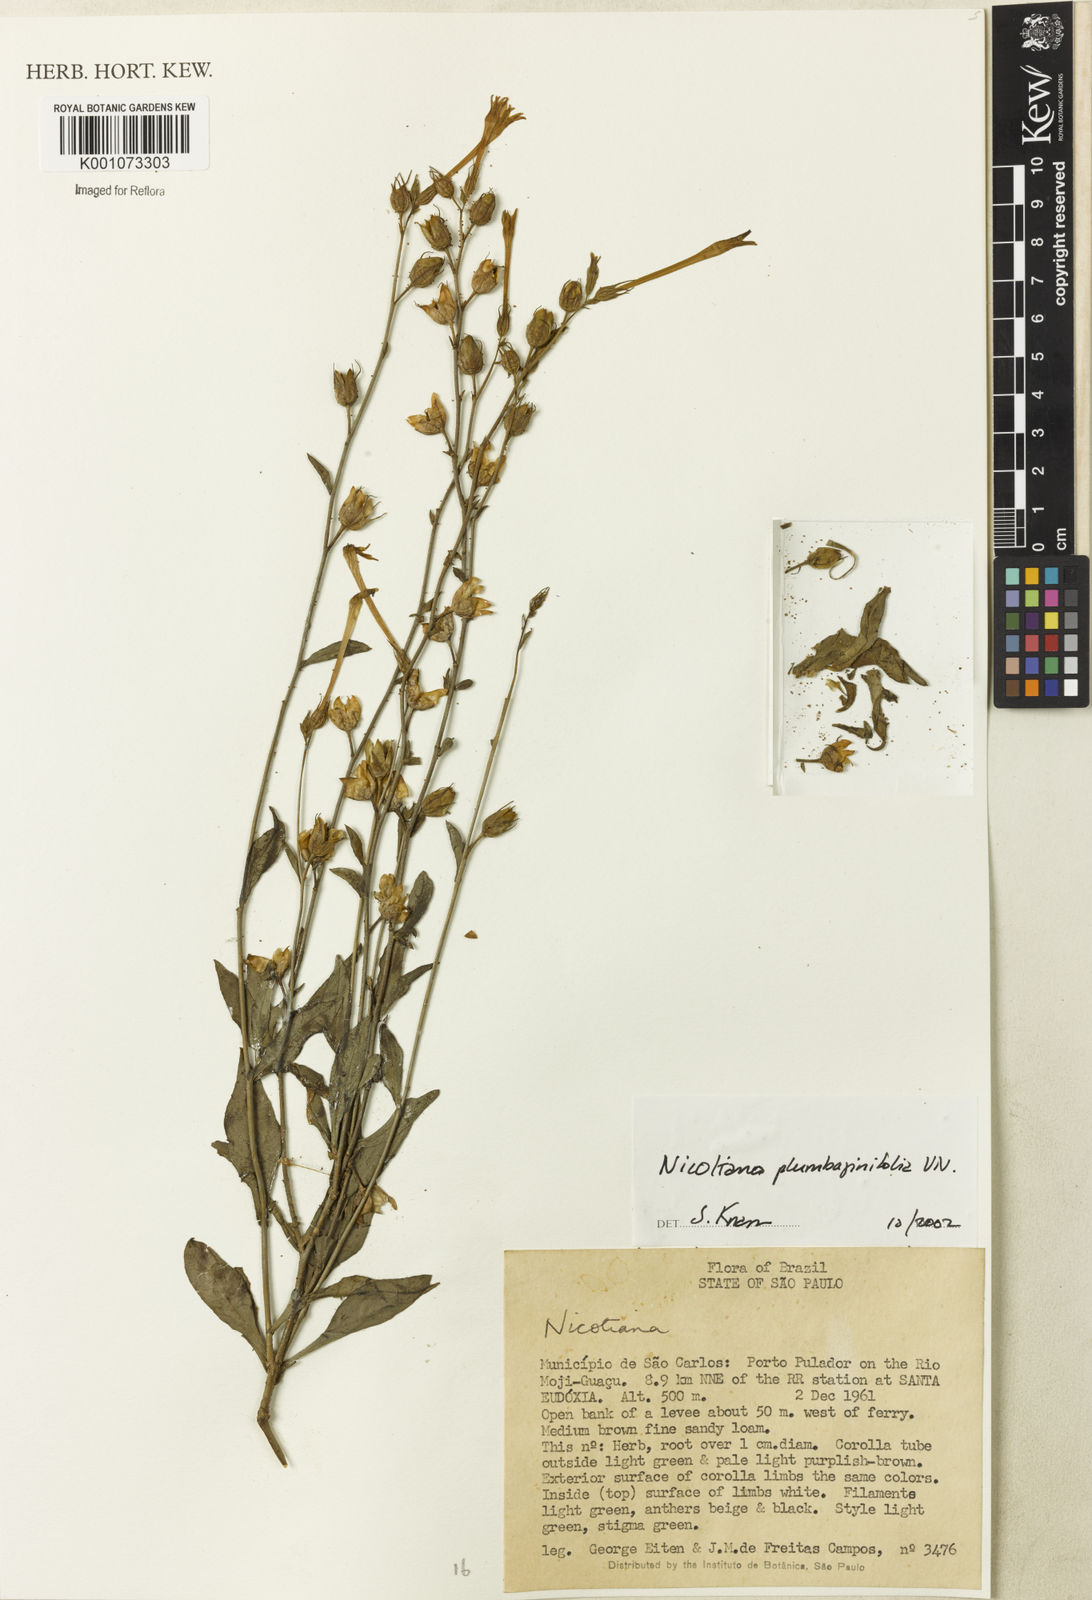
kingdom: Plantae
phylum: Tracheophyta
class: Magnoliopsida
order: Solanales
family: Solanaceae
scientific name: Solanaceae
